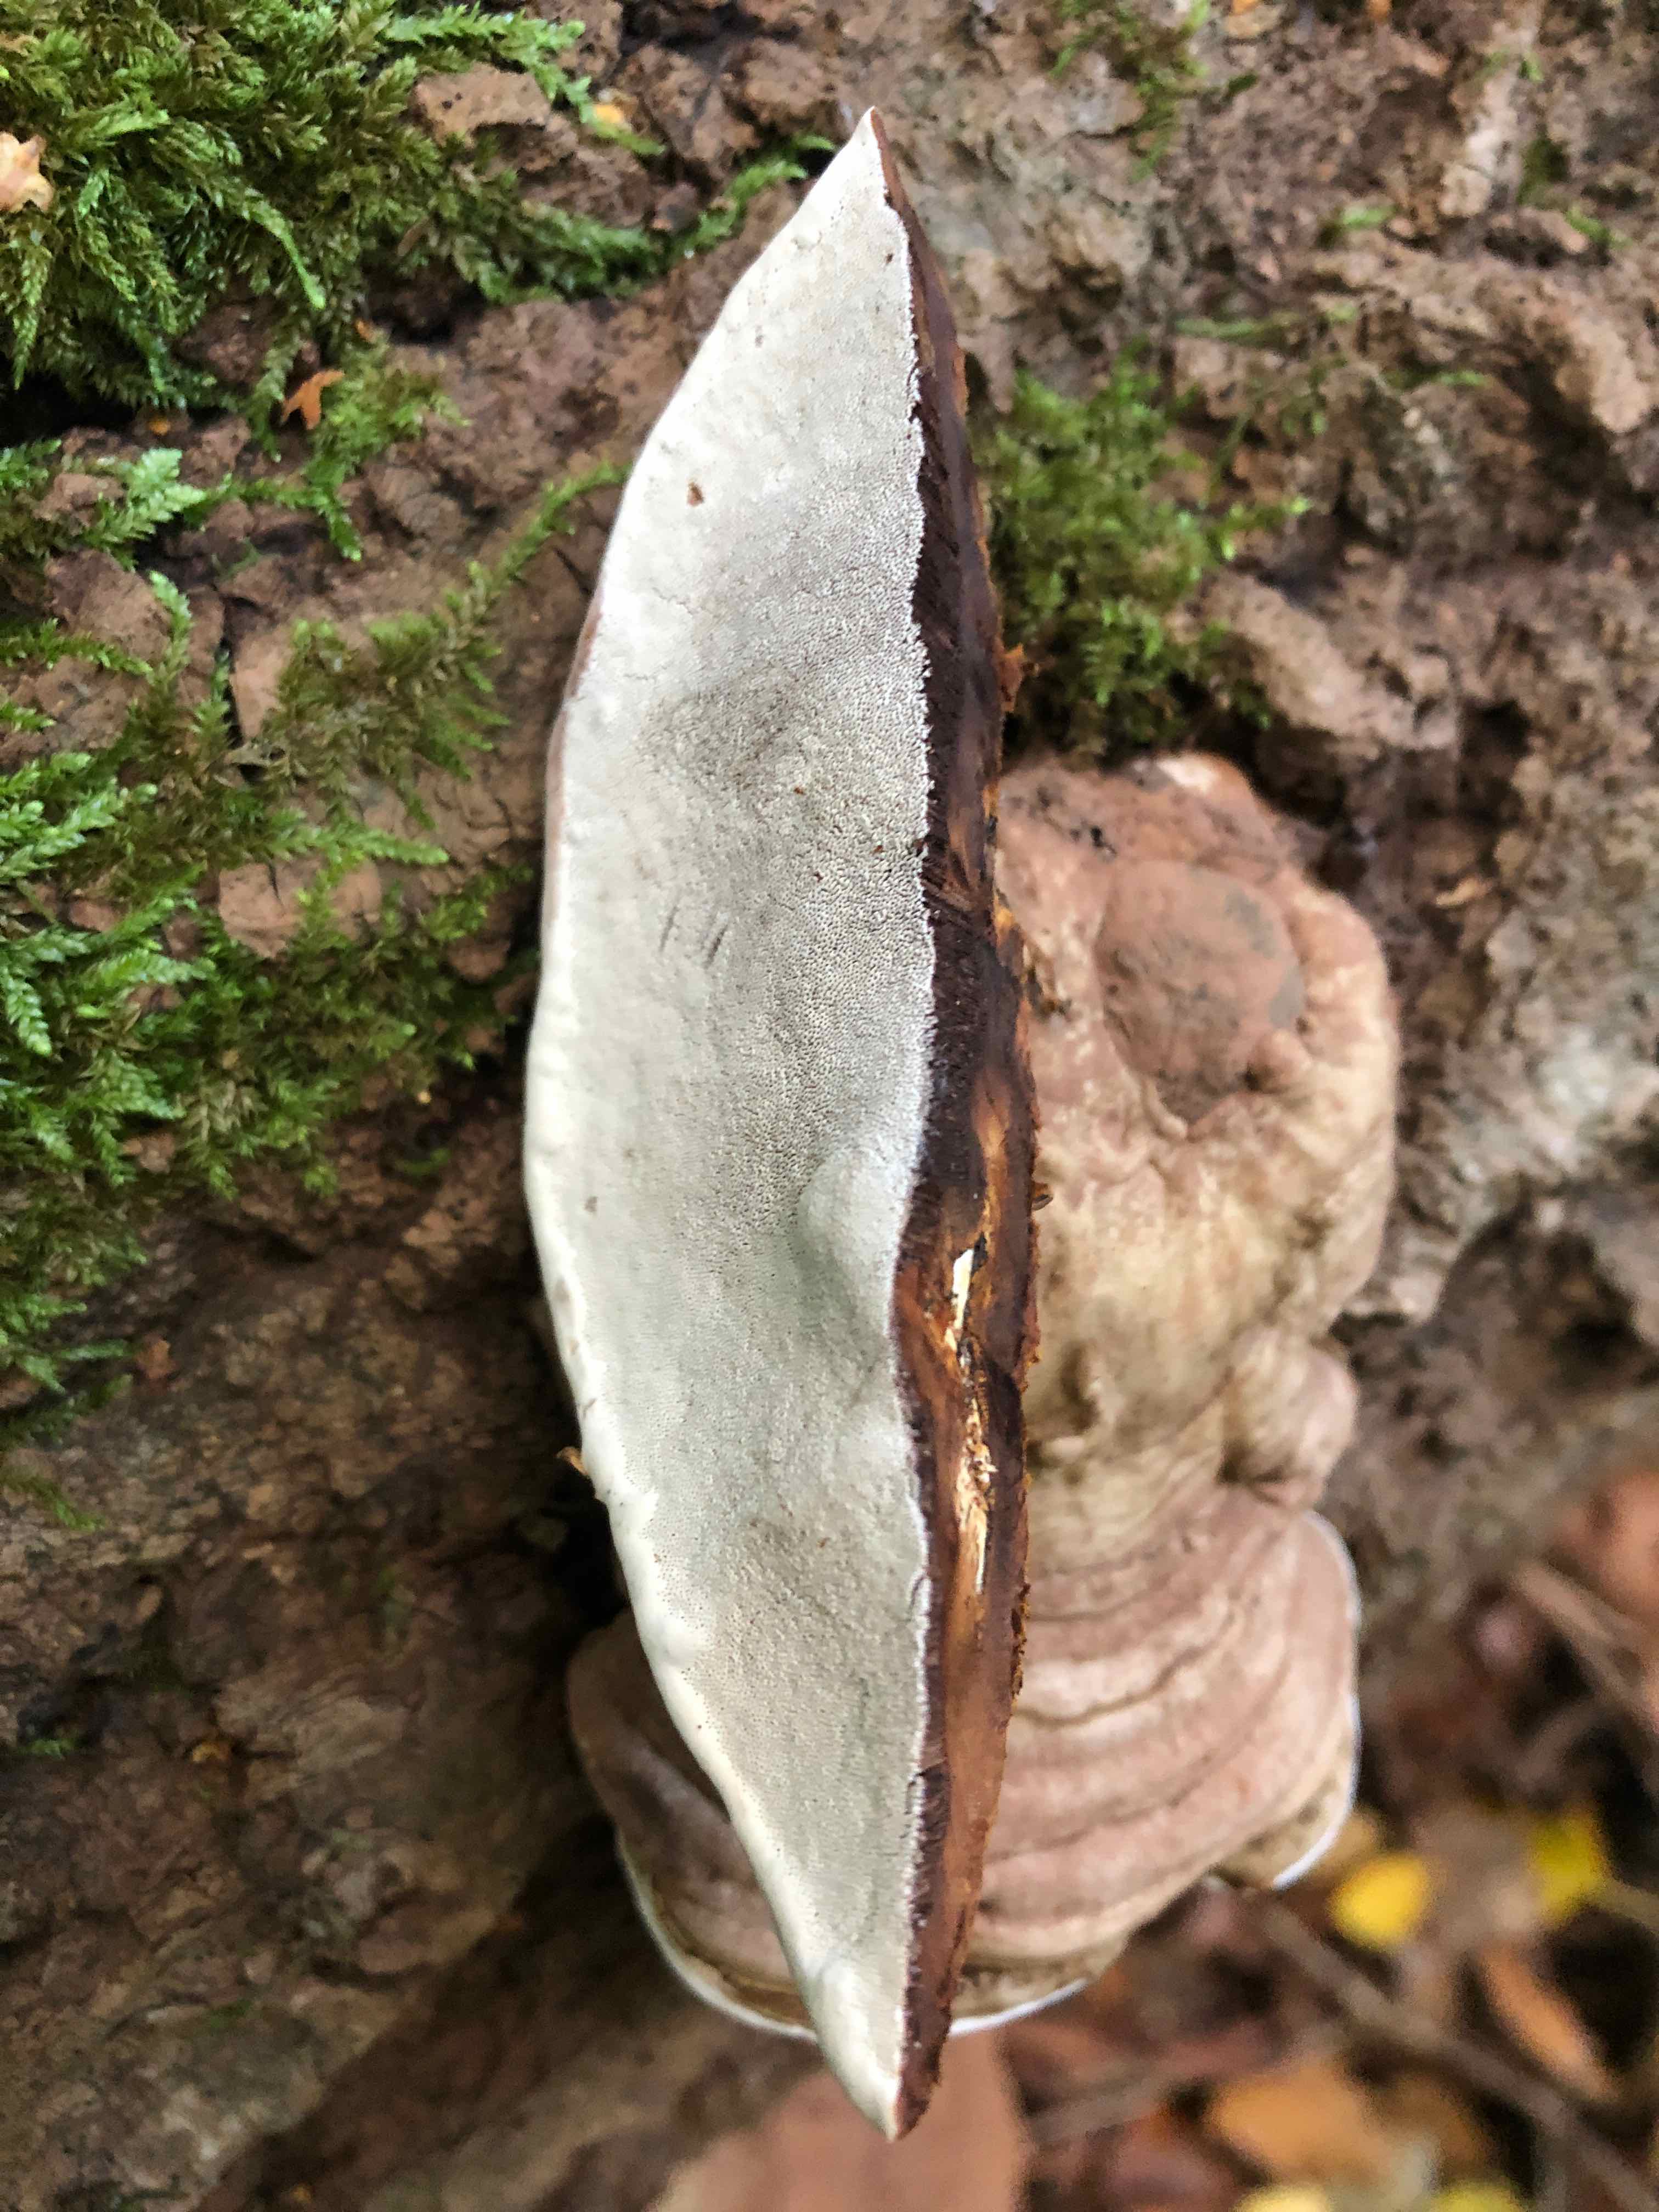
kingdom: Fungi
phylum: Basidiomycota
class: Agaricomycetes
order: Polyporales
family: Polyporaceae
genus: Ganoderma
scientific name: Ganoderma applanatum
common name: flad lakporesvamp
